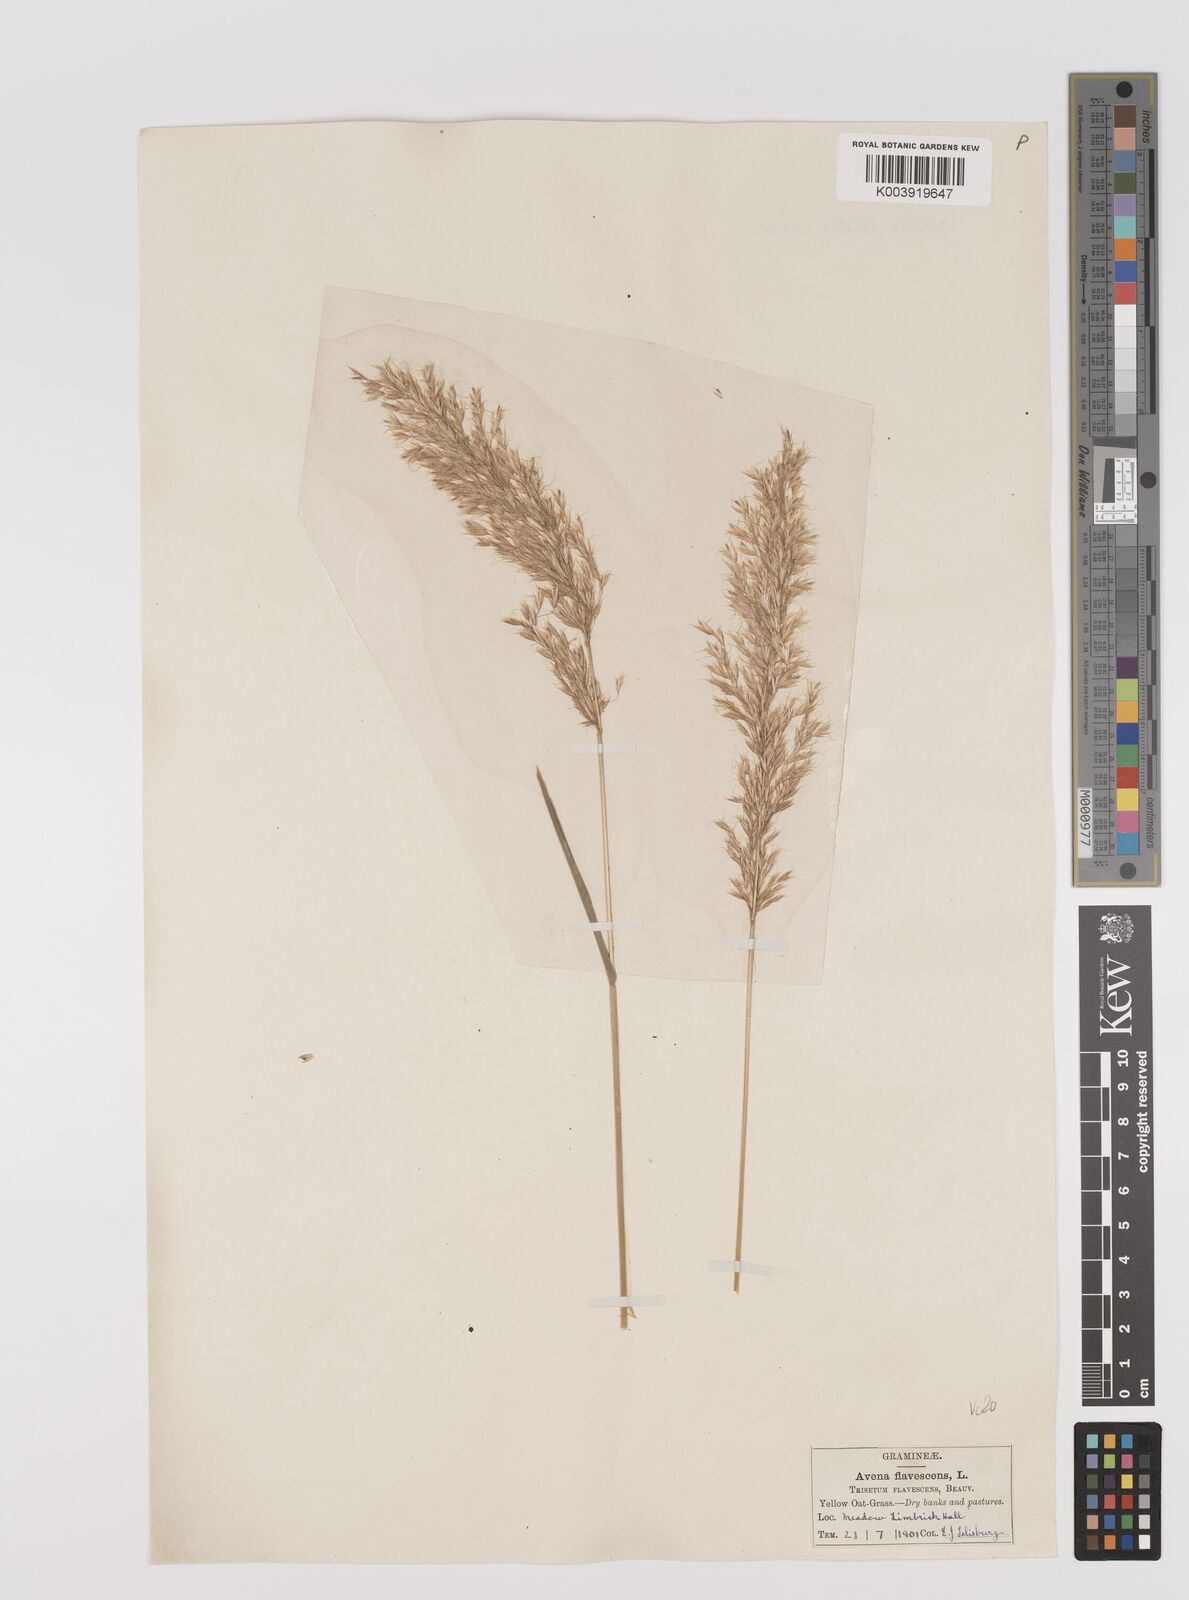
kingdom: Plantae
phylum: Tracheophyta
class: Liliopsida
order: Poales
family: Poaceae
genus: Trisetum
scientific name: Trisetum flavescens
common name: Yellow oat-grass
